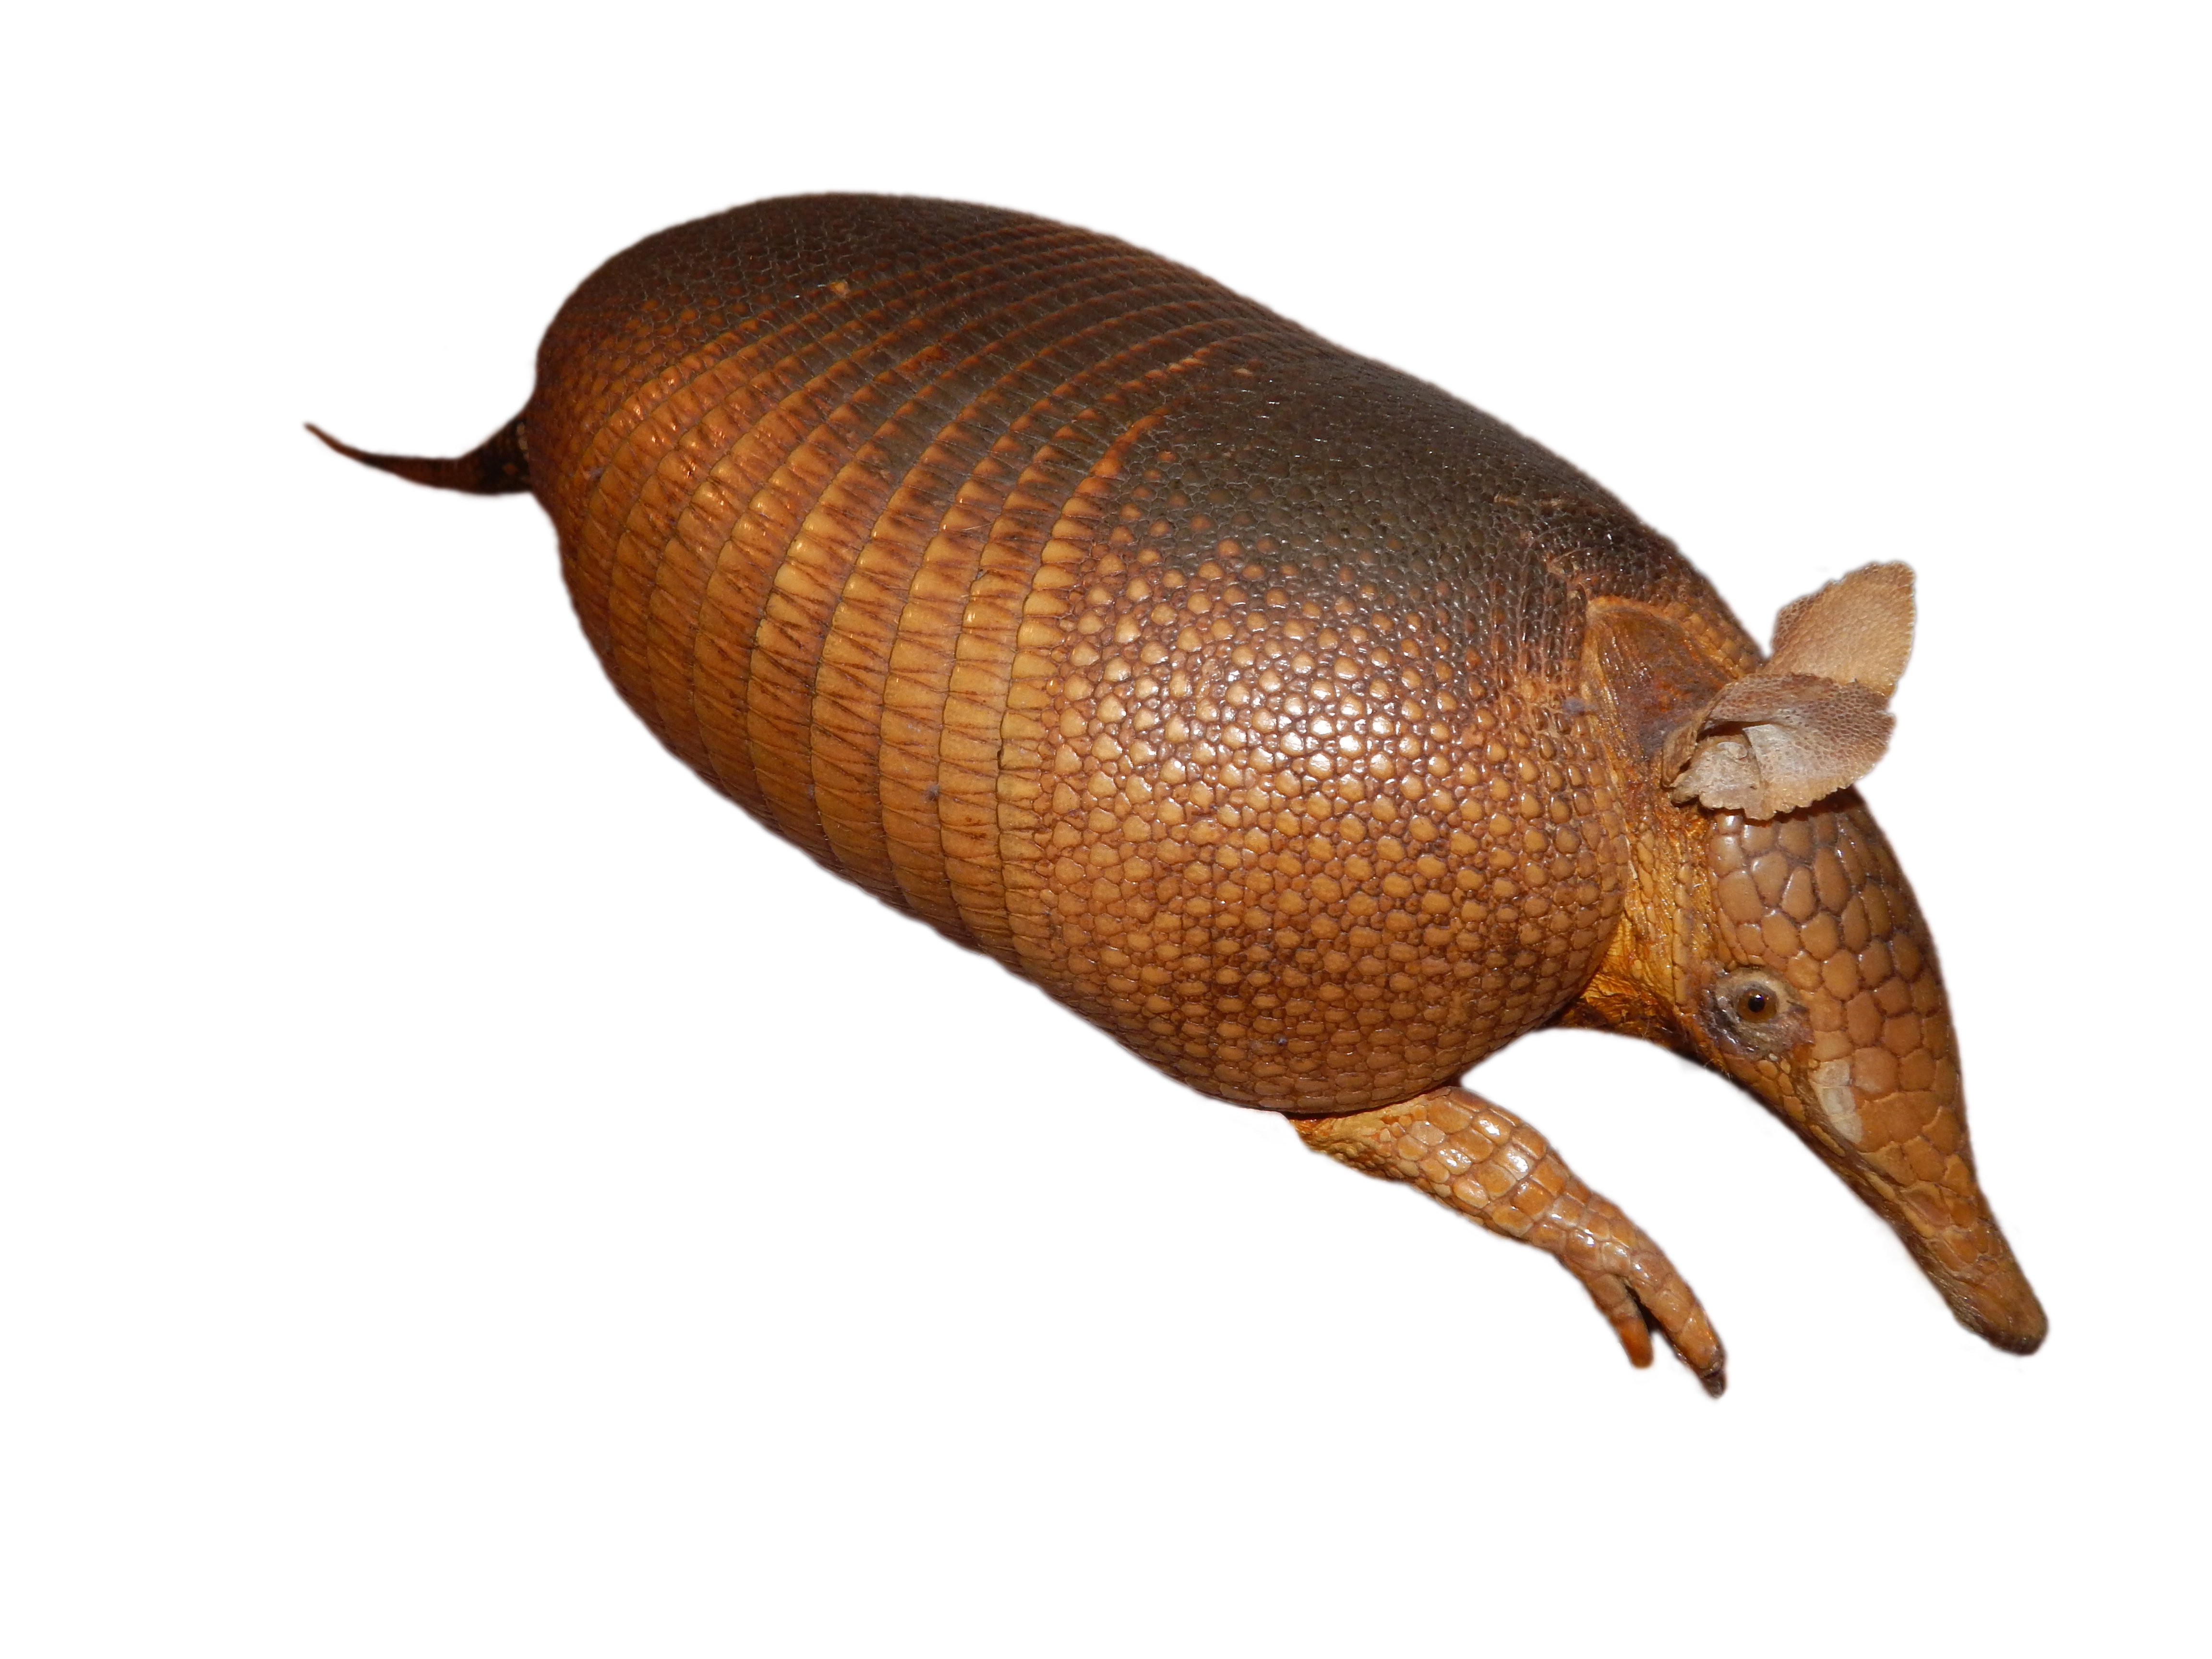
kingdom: Animalia
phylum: Chordata
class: Mammalia
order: Cingulata
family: Dasypodidae
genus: Dasypus
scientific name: Dasypus novemcinctus
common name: Nine-banded armadillo
